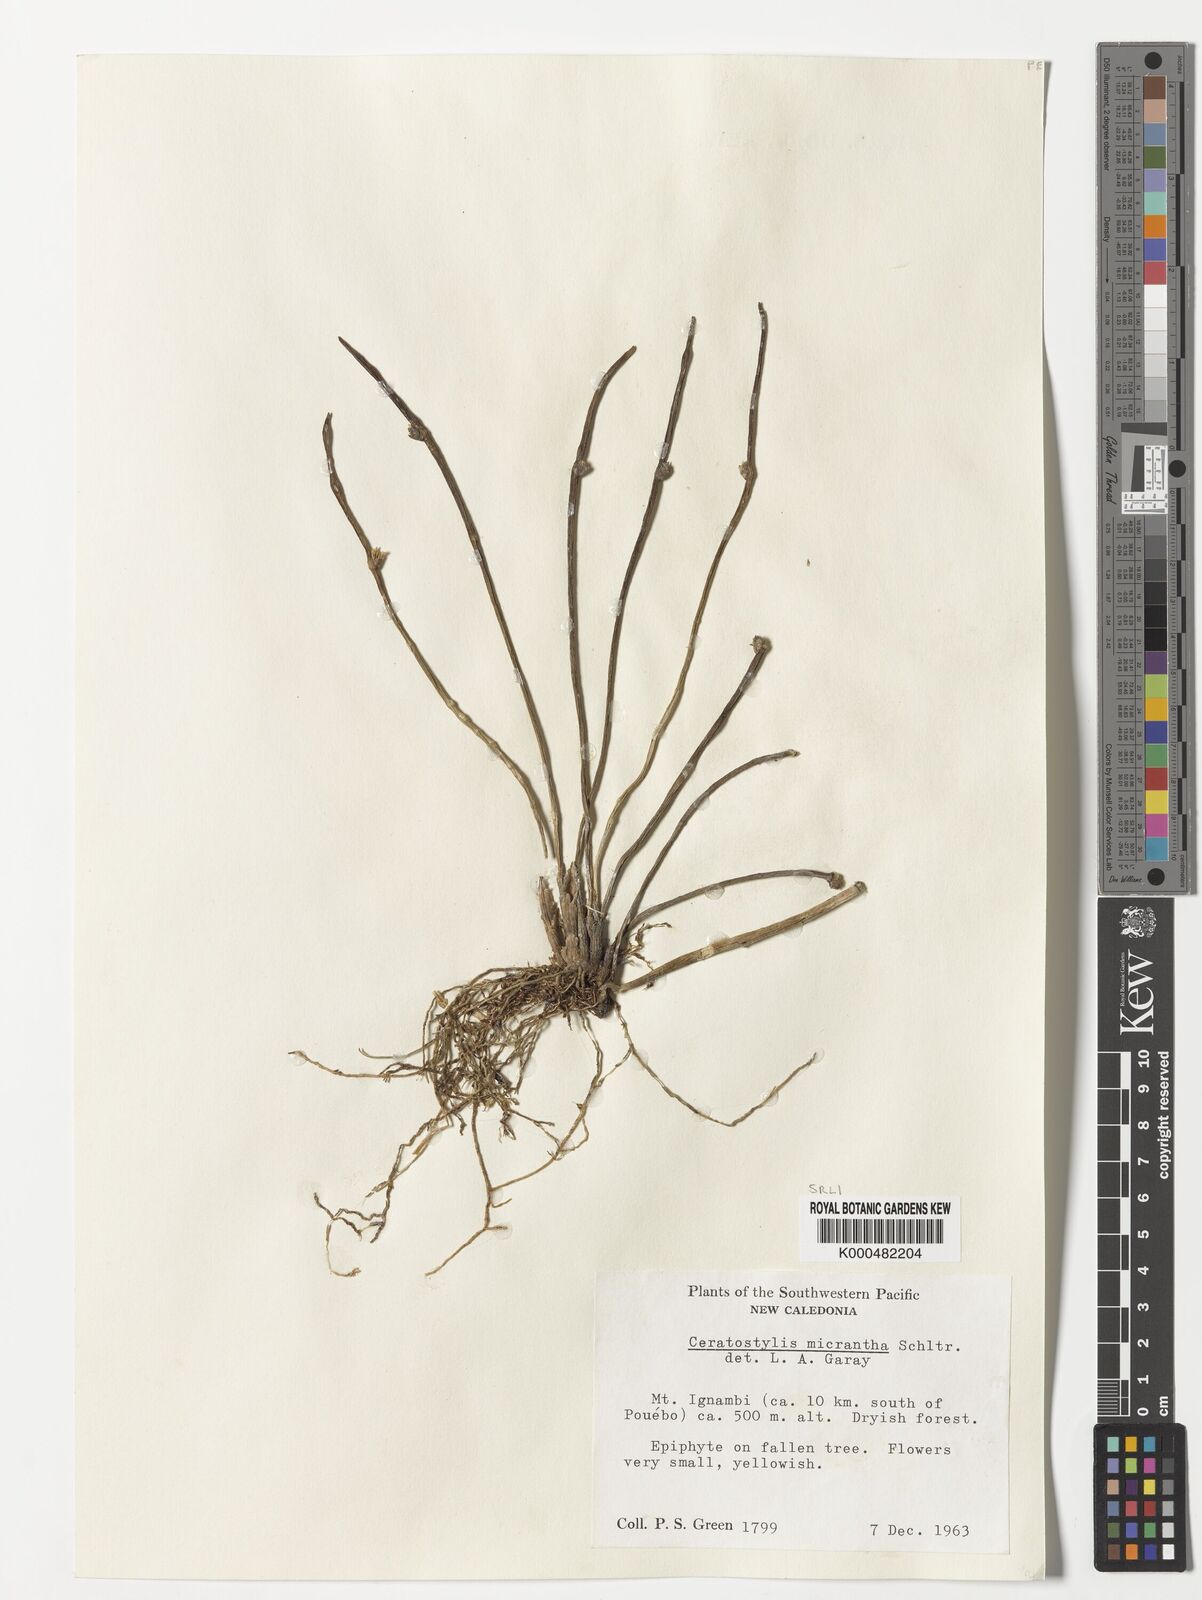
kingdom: Plantae
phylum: Tracheophyta
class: Liliopsida
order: Asparagales
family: Orchidaceae
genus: Ceratostylis
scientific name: Ceratostylis
